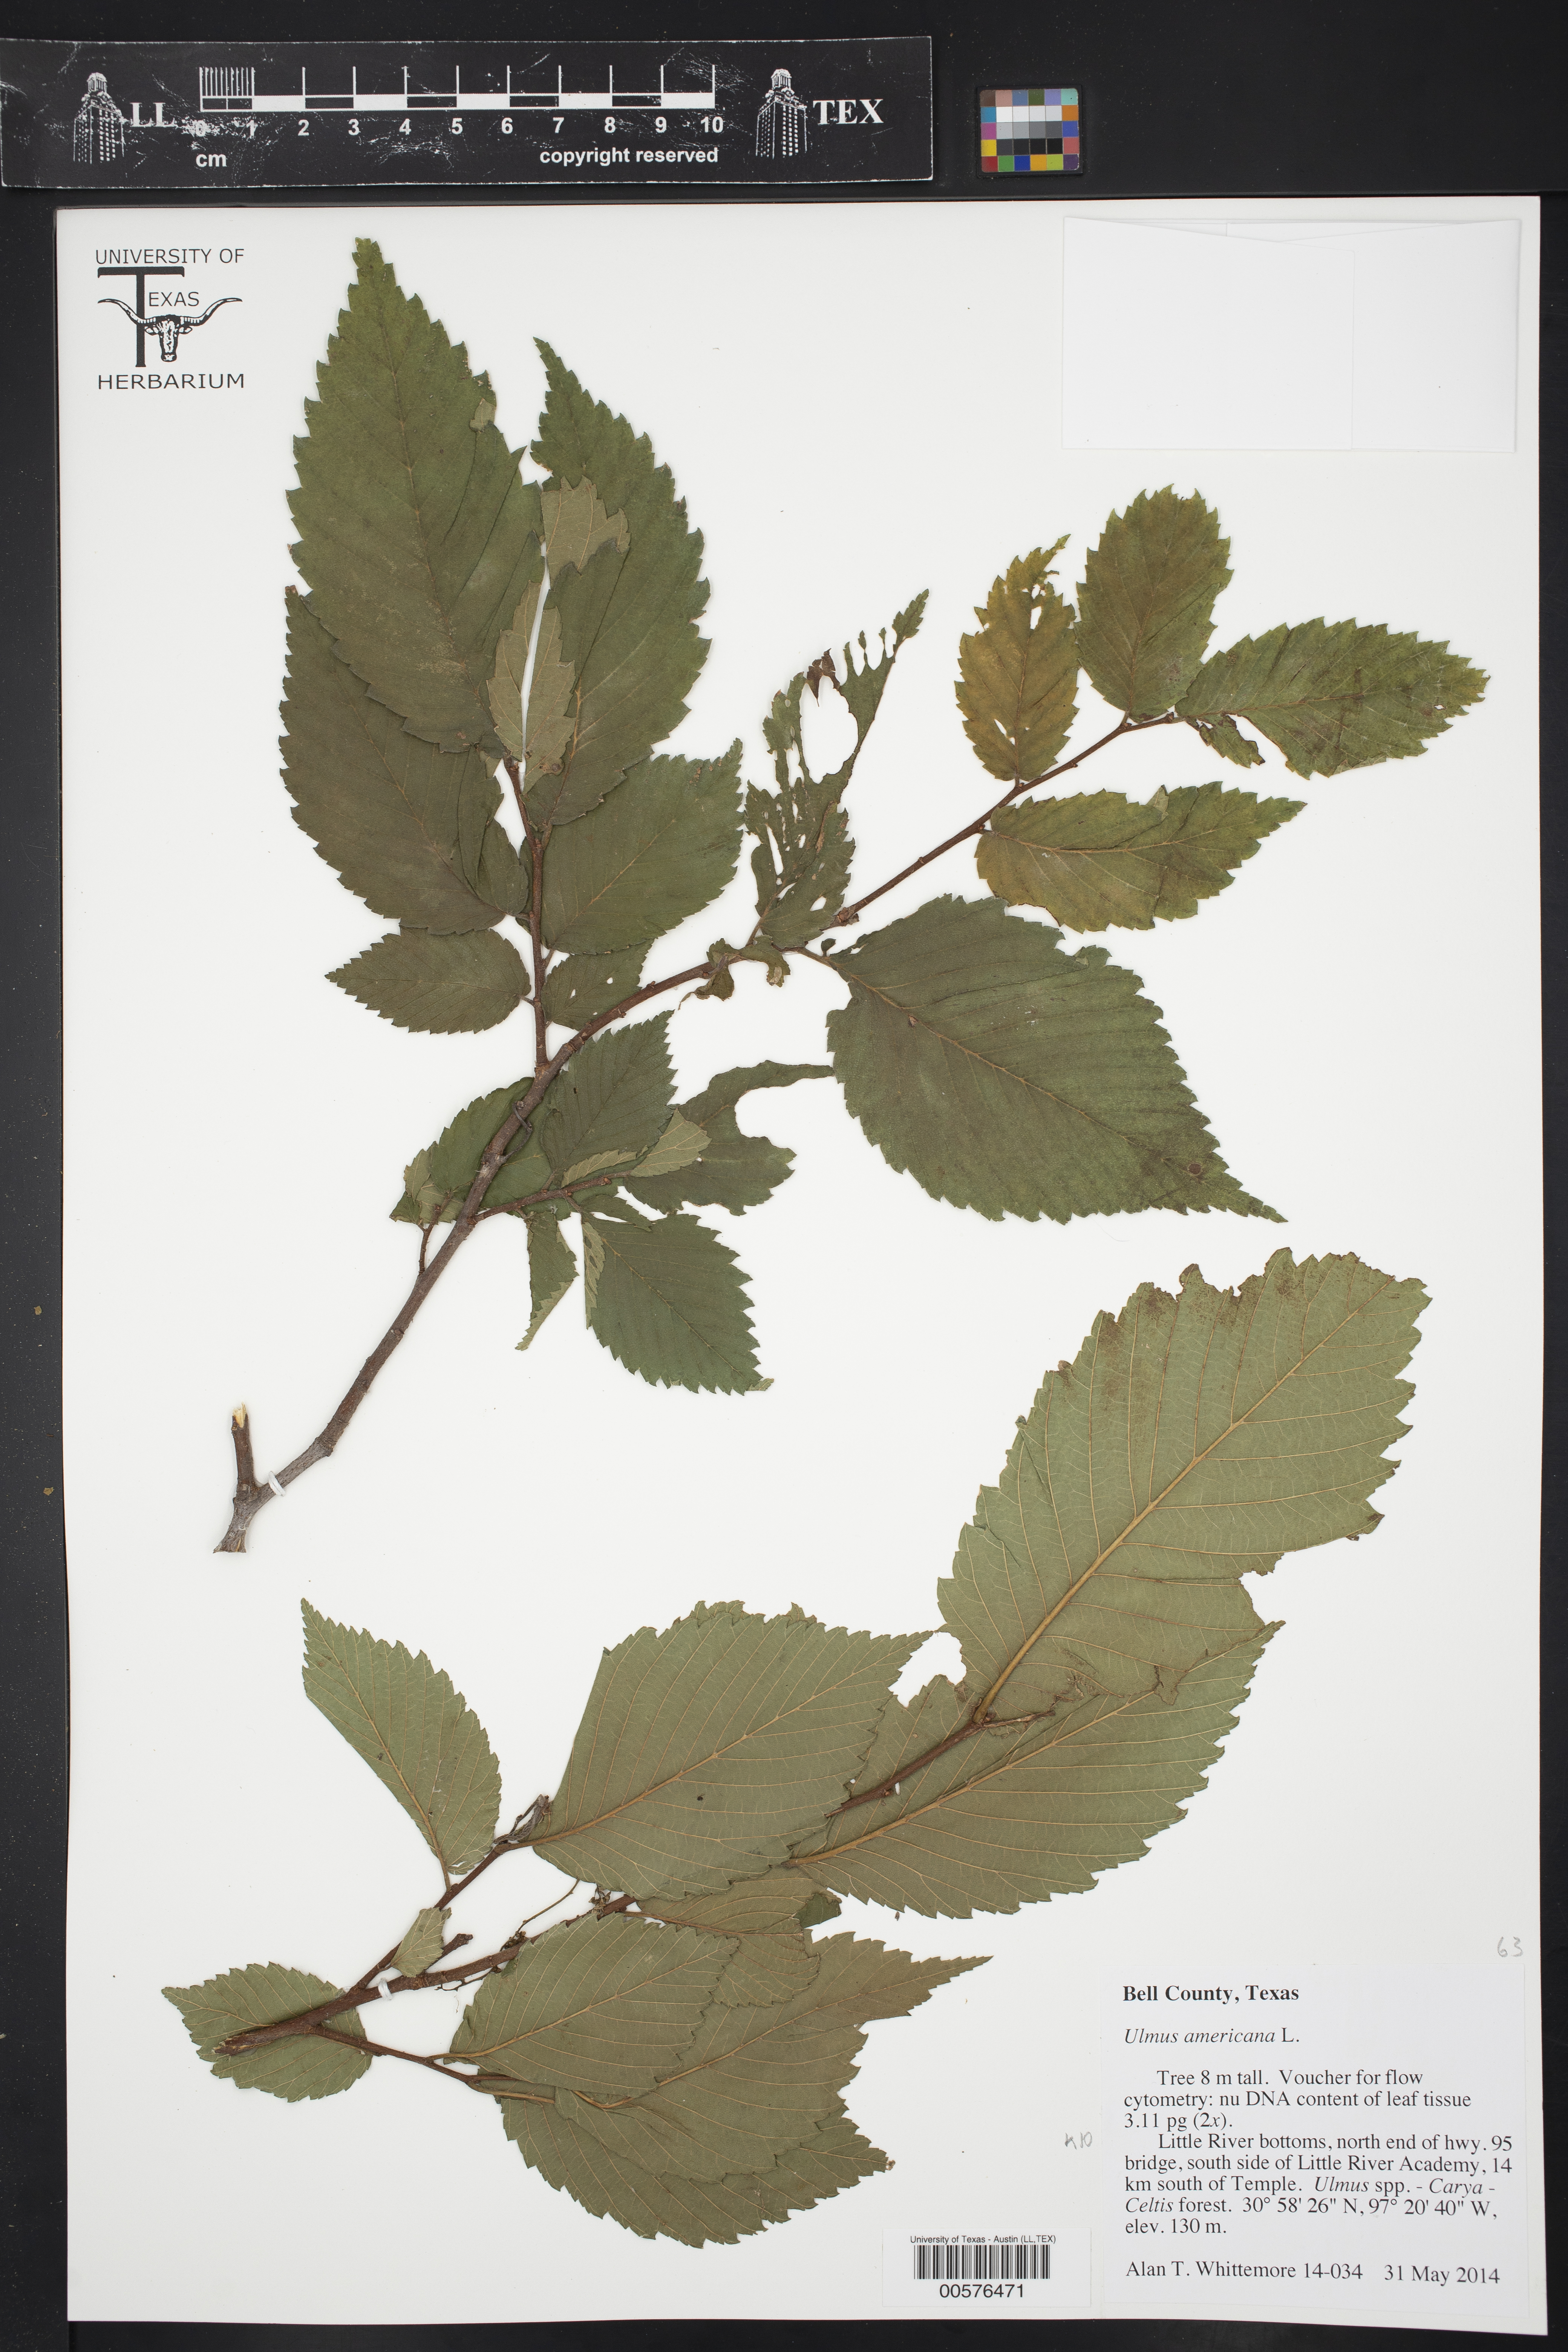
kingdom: Plantae
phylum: Tracheophyta
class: Magnoliopsida
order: Rosales
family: Ulmaceae
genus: Ulmus
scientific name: Ulmus americana
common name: American elm
